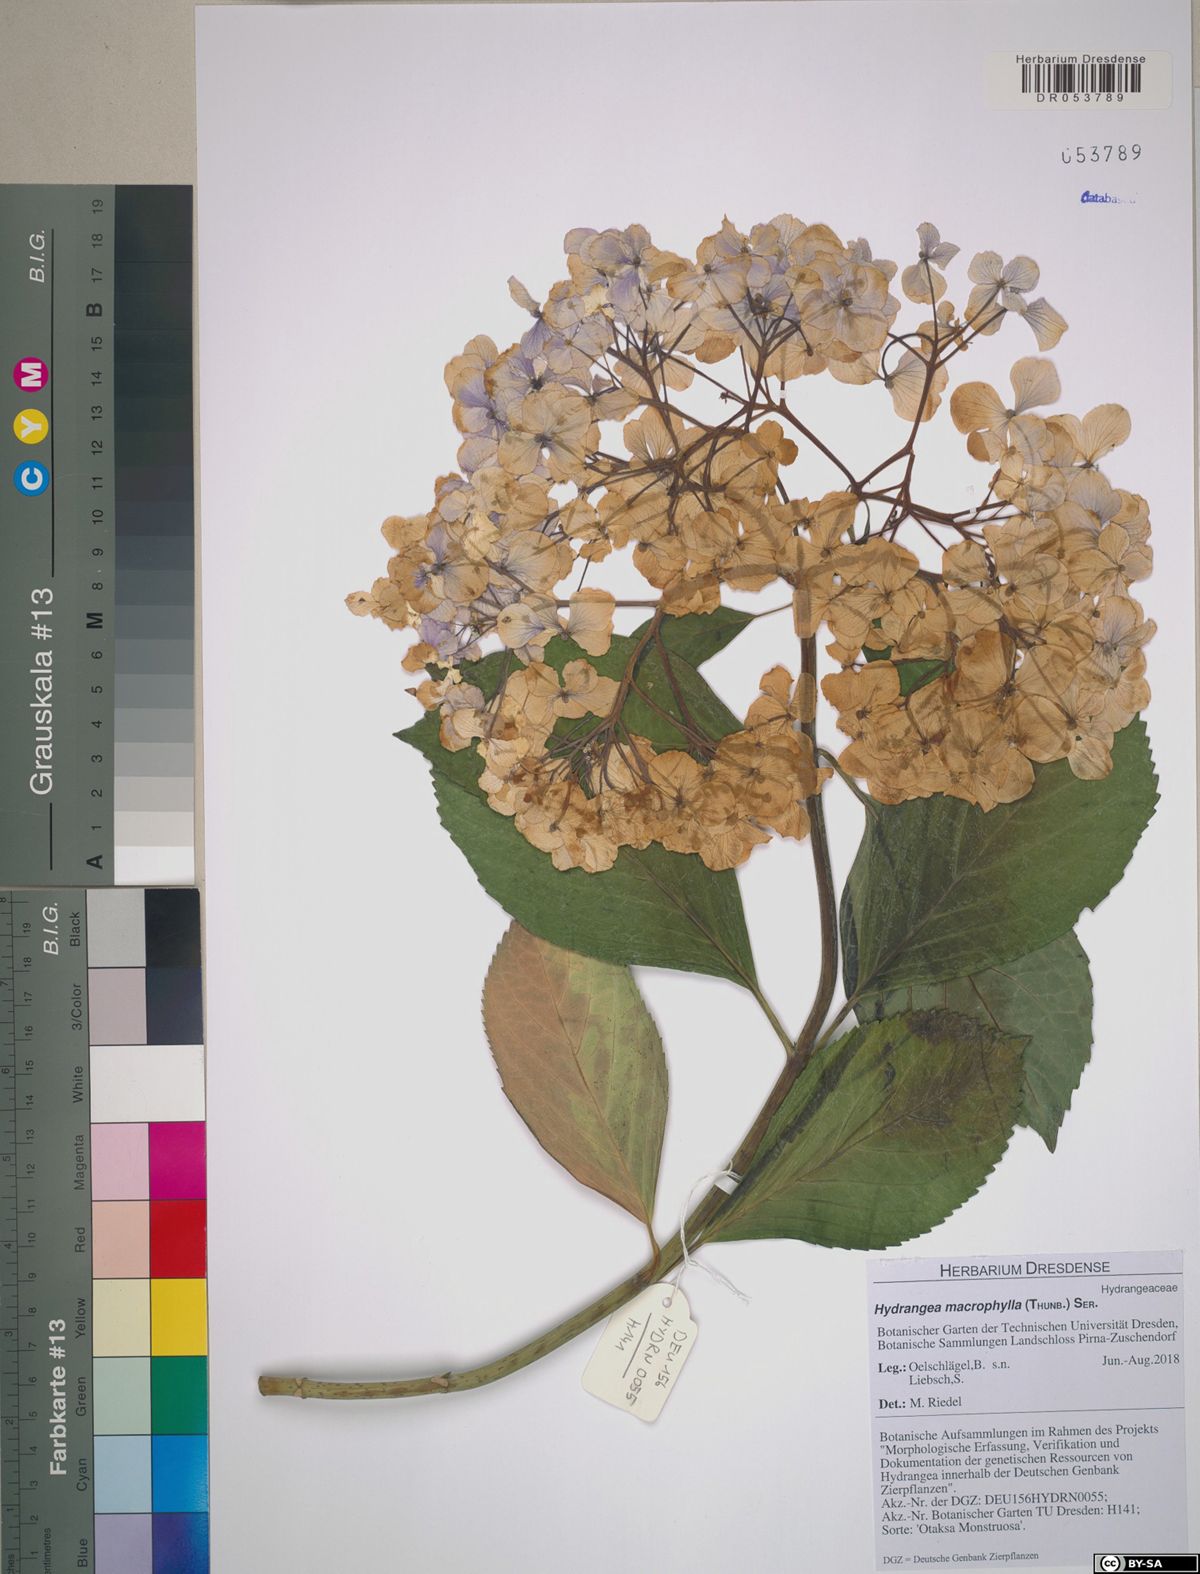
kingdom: Plantae
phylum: Tracheophyta
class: Magnoliopsida
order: Cornales
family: Hydrangeaceae
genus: Hydrangea
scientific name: Hydrangea macrophylla
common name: Hydrangea
